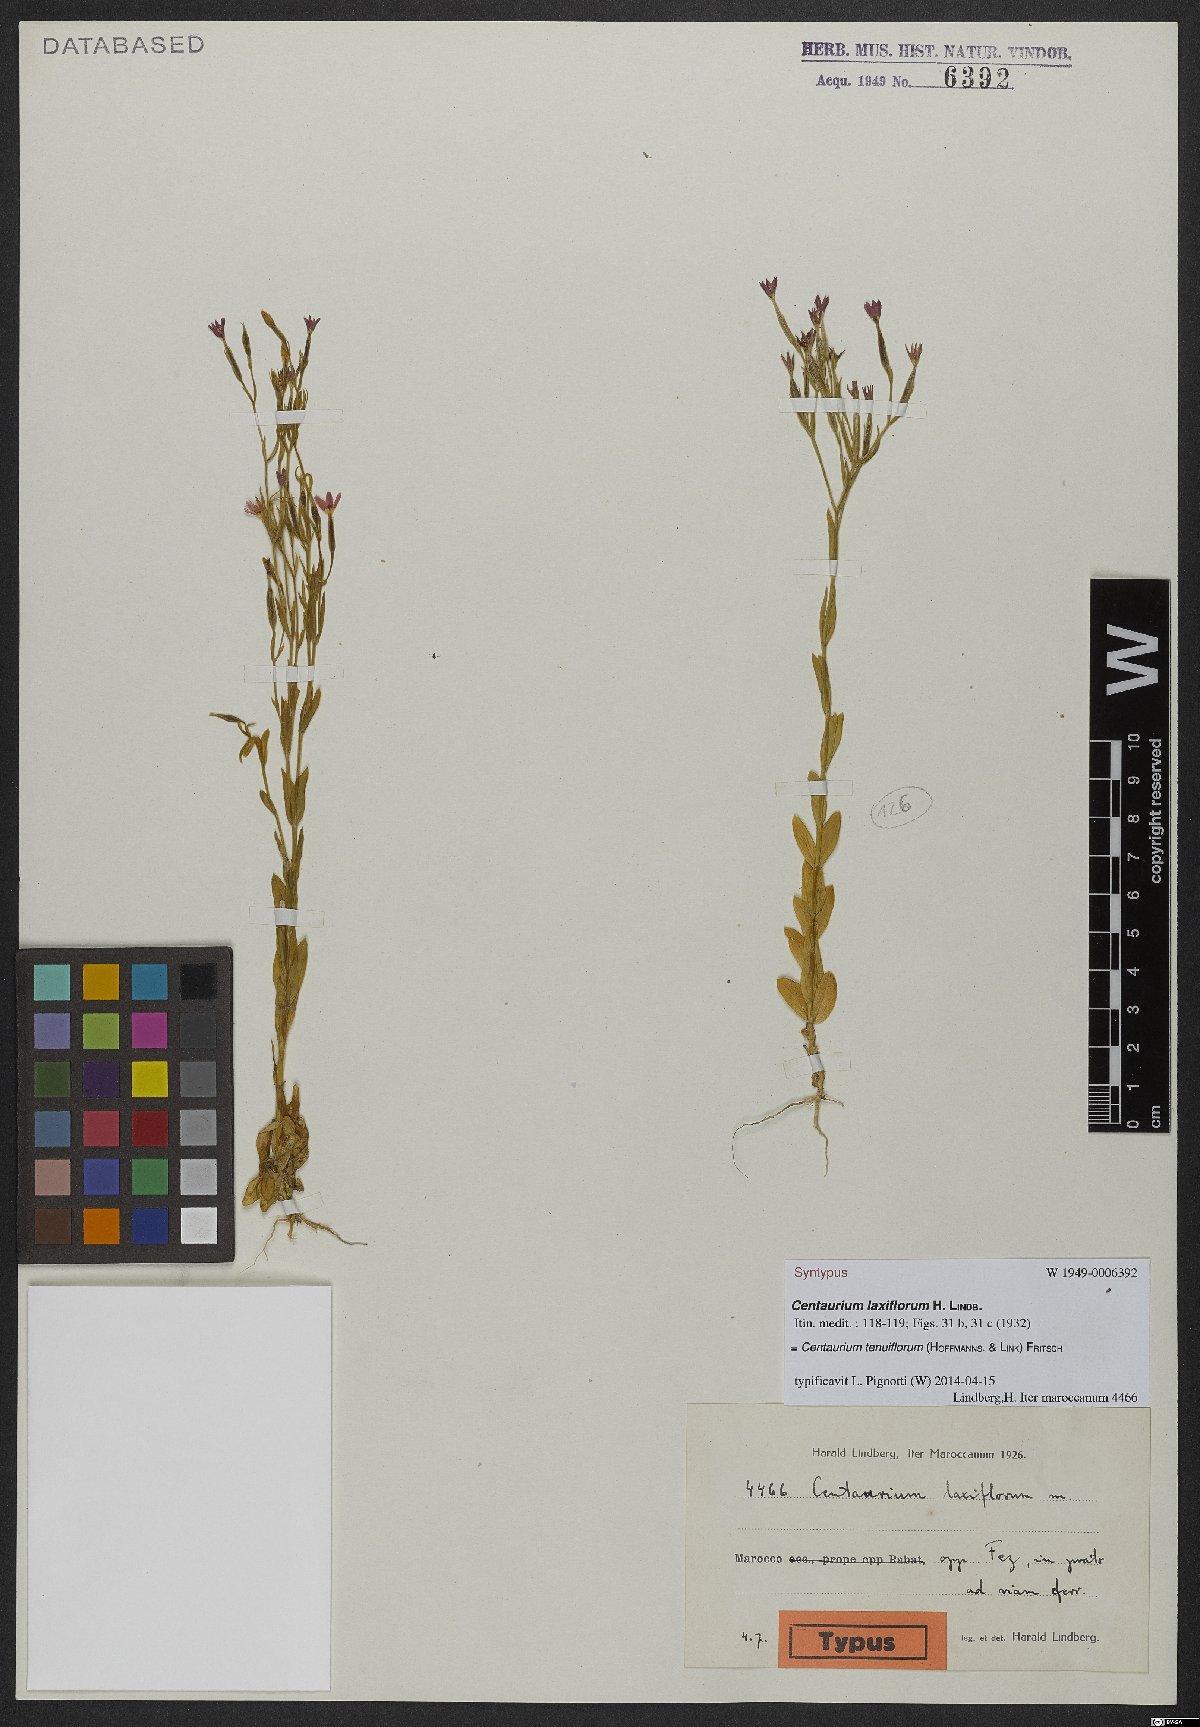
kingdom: Plantae
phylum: Tracheophyta
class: Magnoliopsida
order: Gentianales
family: Gentianaceae
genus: Centaurium
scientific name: Centaurium tenuiflorum
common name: Slender centaury
